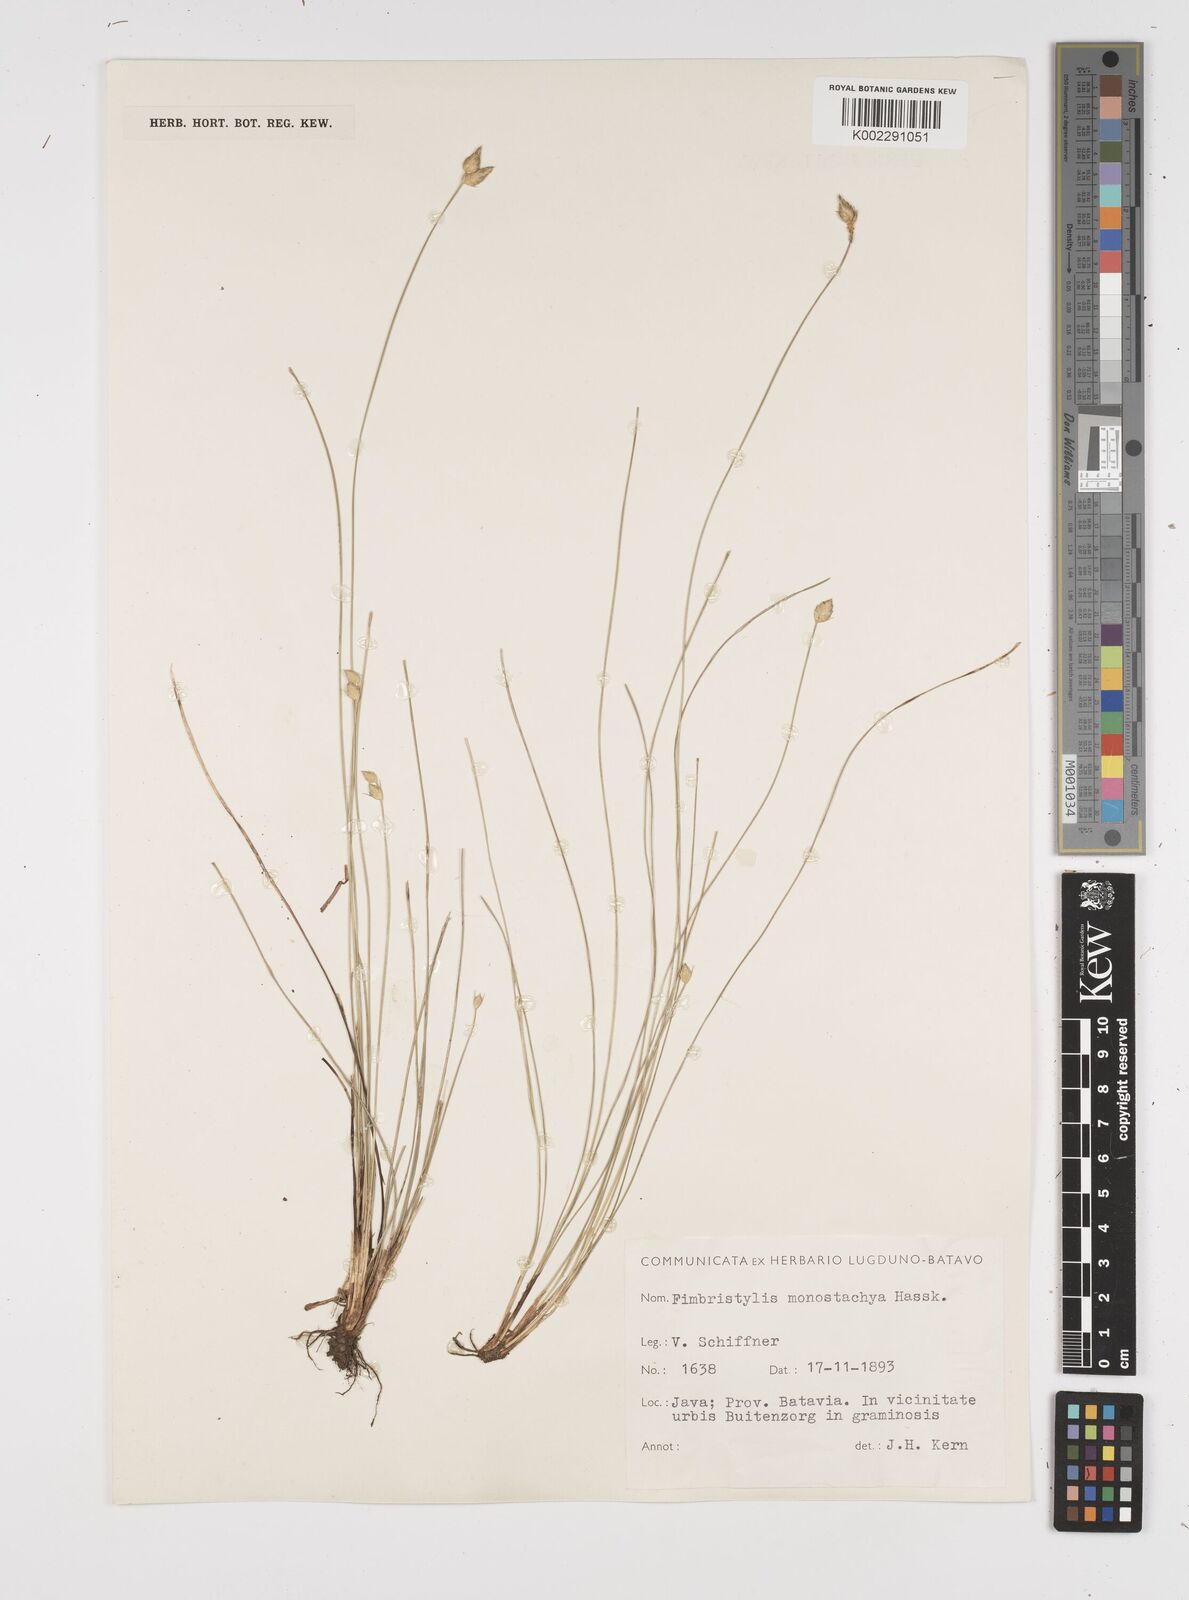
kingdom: Plantae
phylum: Tracheophyta
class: Liliopsida
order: Poales
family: Cyperaceae
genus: Abildgaardia
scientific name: Abildgaardia ovata
